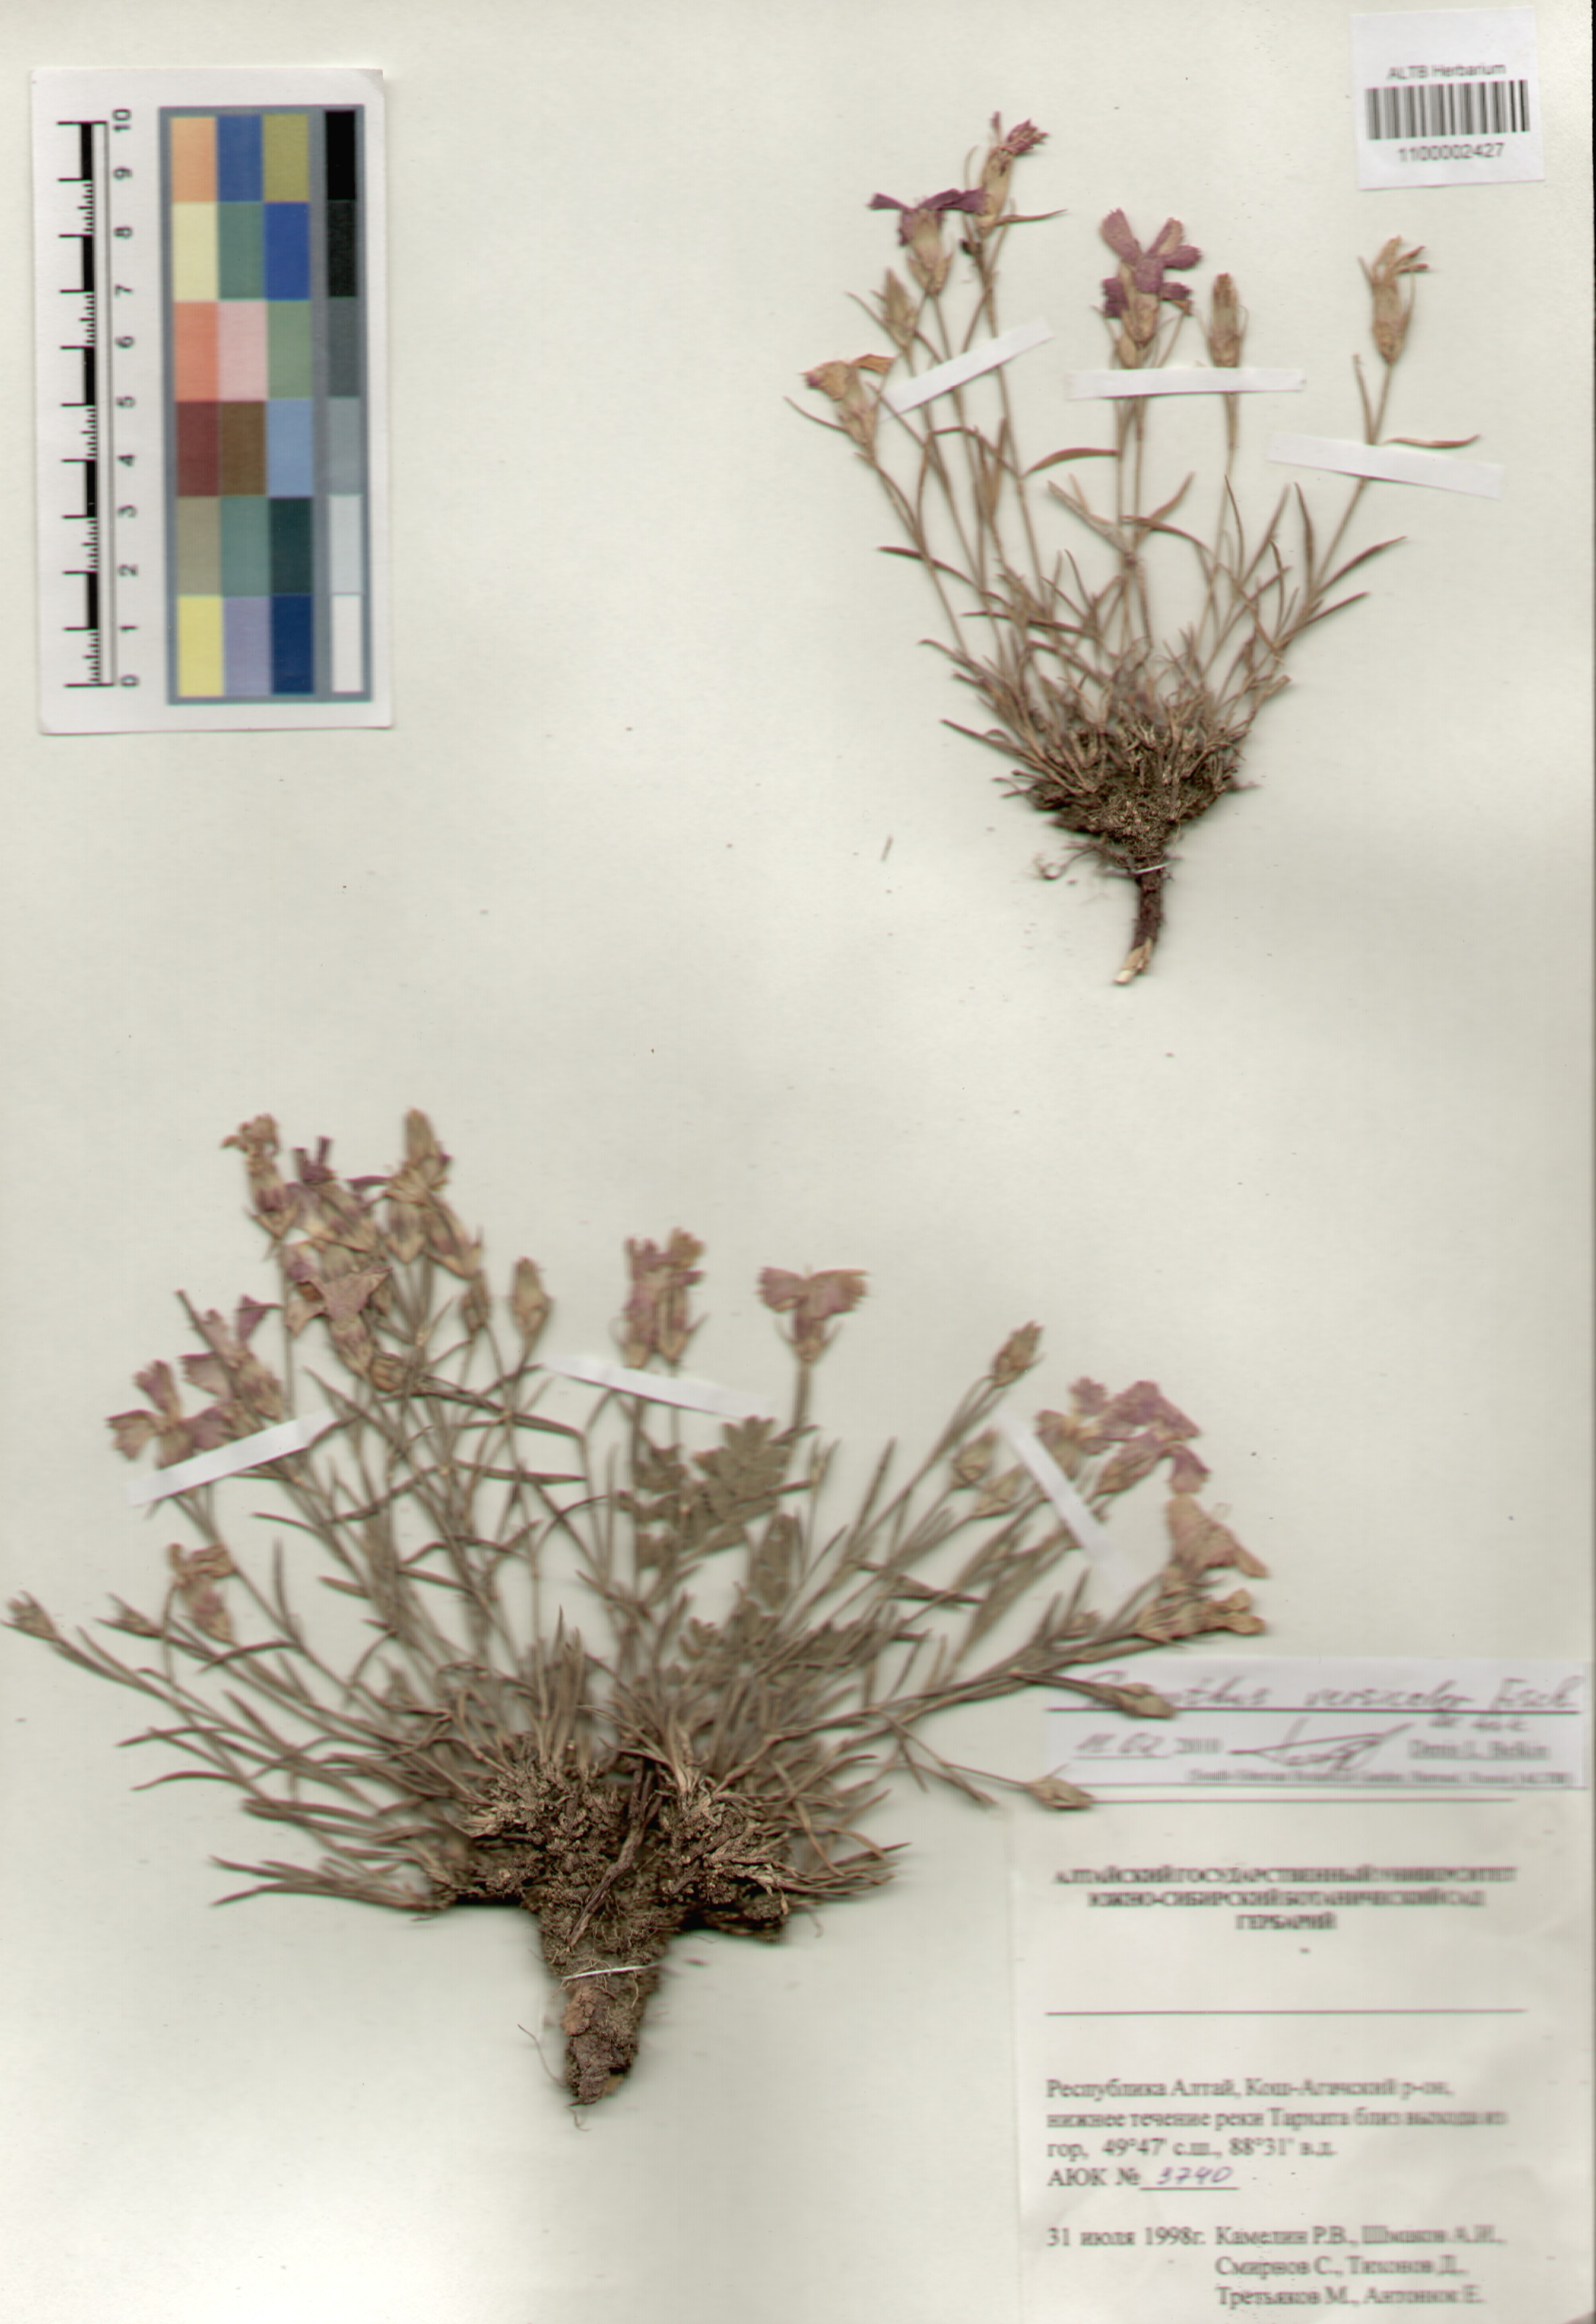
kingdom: Plantae
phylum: Tracheophyta
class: Magnoliopsida
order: Caryophyllales
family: Caryophyllaceae
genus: Dianthus
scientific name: Dianthus chinensis
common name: Rainbow pink
